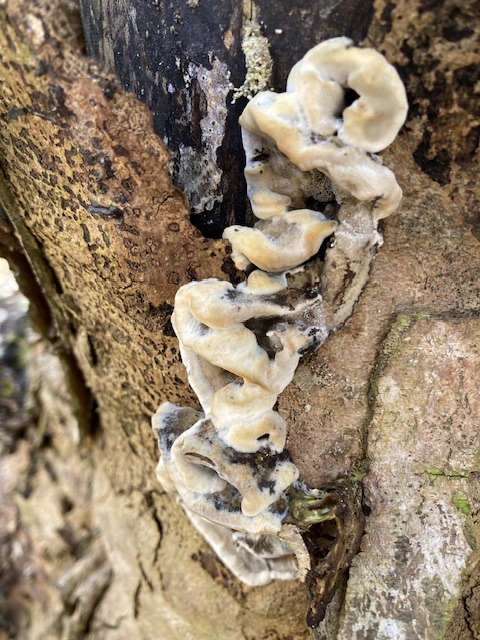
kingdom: Fungi
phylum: Basidiomycota
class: Agaricomycetes
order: Polyporales
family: Phanerochaetaceae
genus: Bjerkandera
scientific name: Bjerkandera adusta
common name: sveden sodporesvamp
